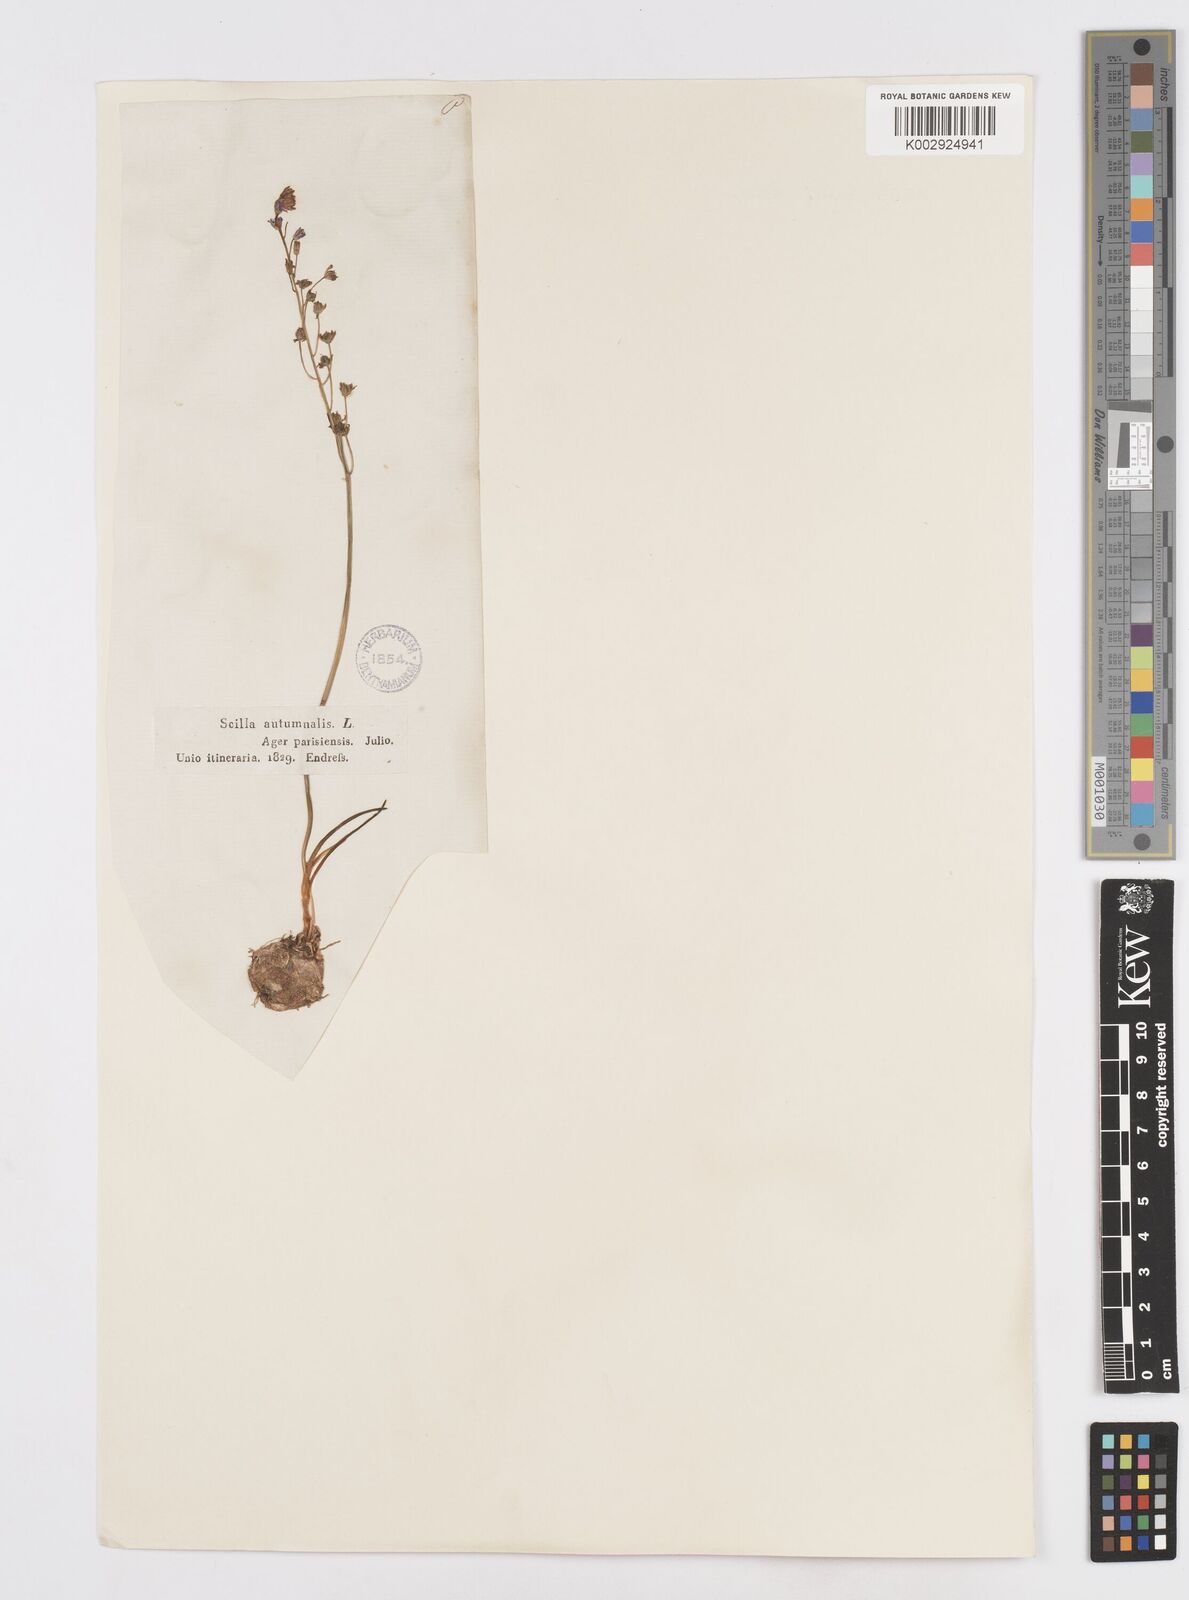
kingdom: Plantae
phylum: Tracheophyta
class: Liliopsida
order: Asparagales
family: Asparagaceae
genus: Prospero
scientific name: Prospero autumnale
